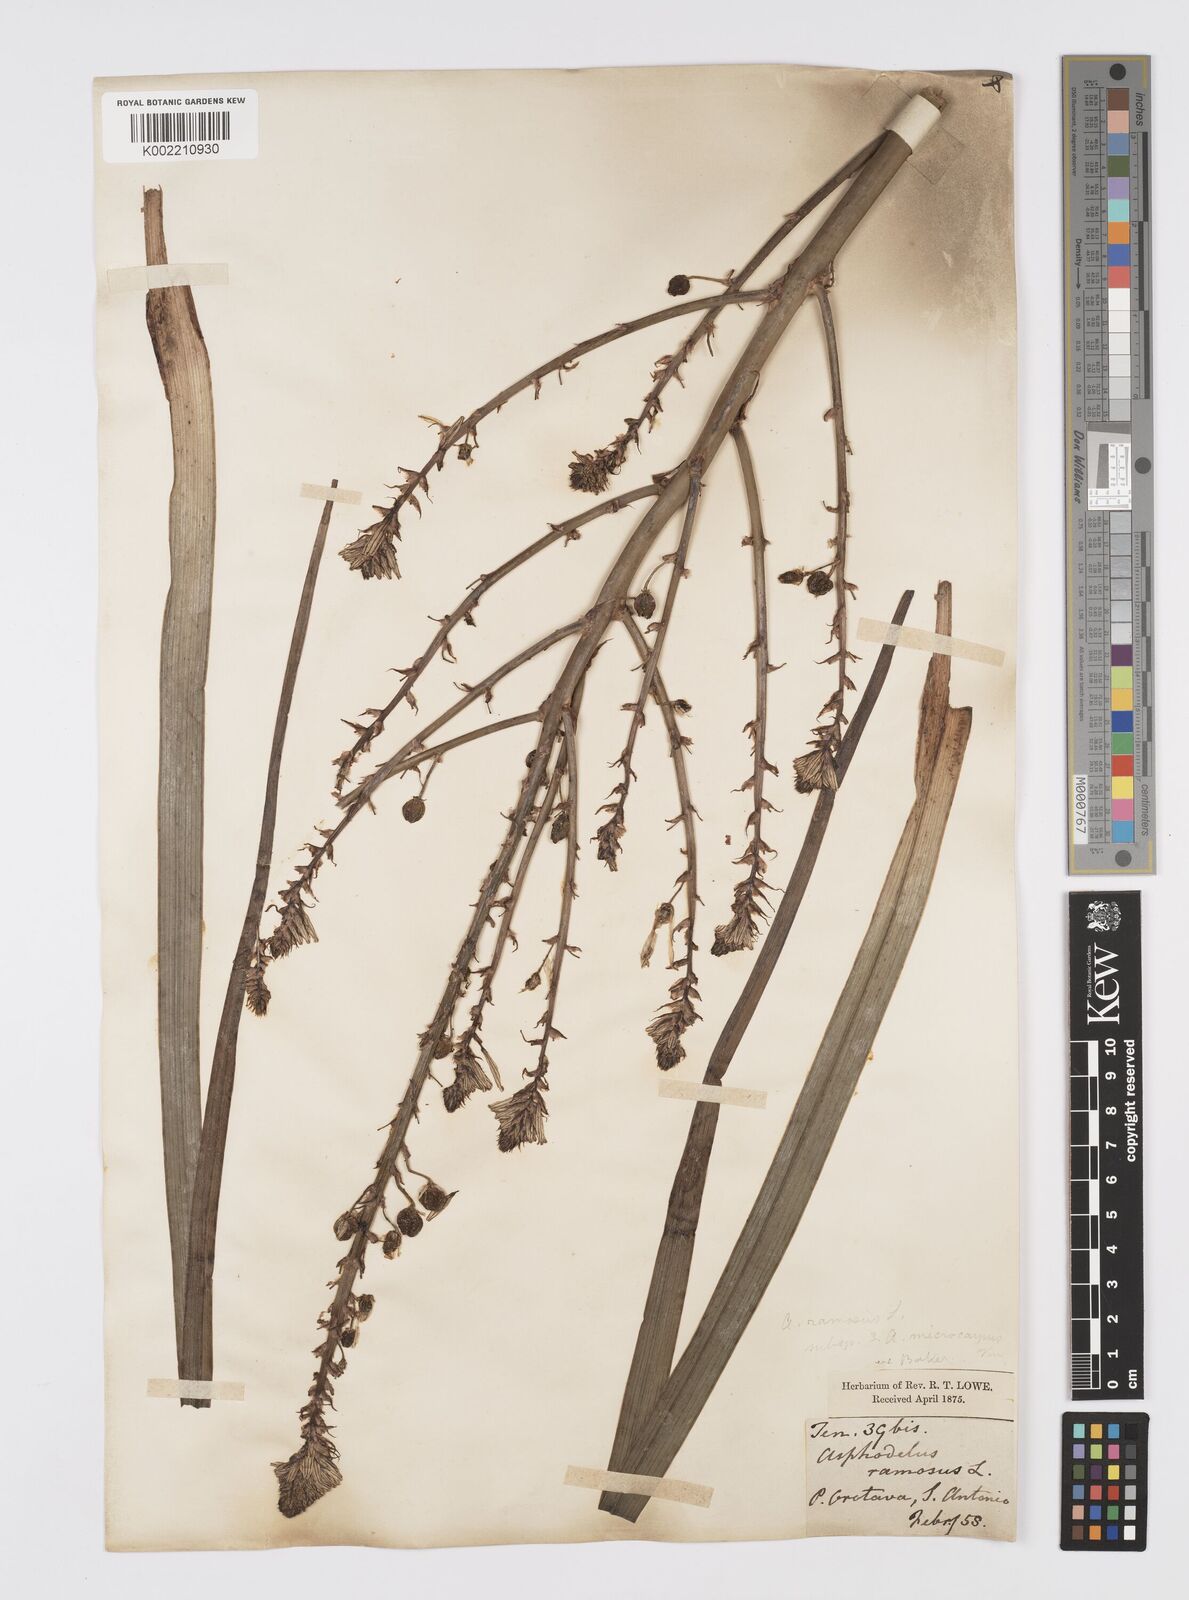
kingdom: Plantae
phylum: Tracheophyta
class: Liliopsida
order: Asparagales
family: Asphodelaceae
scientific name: Asphodelaceae
